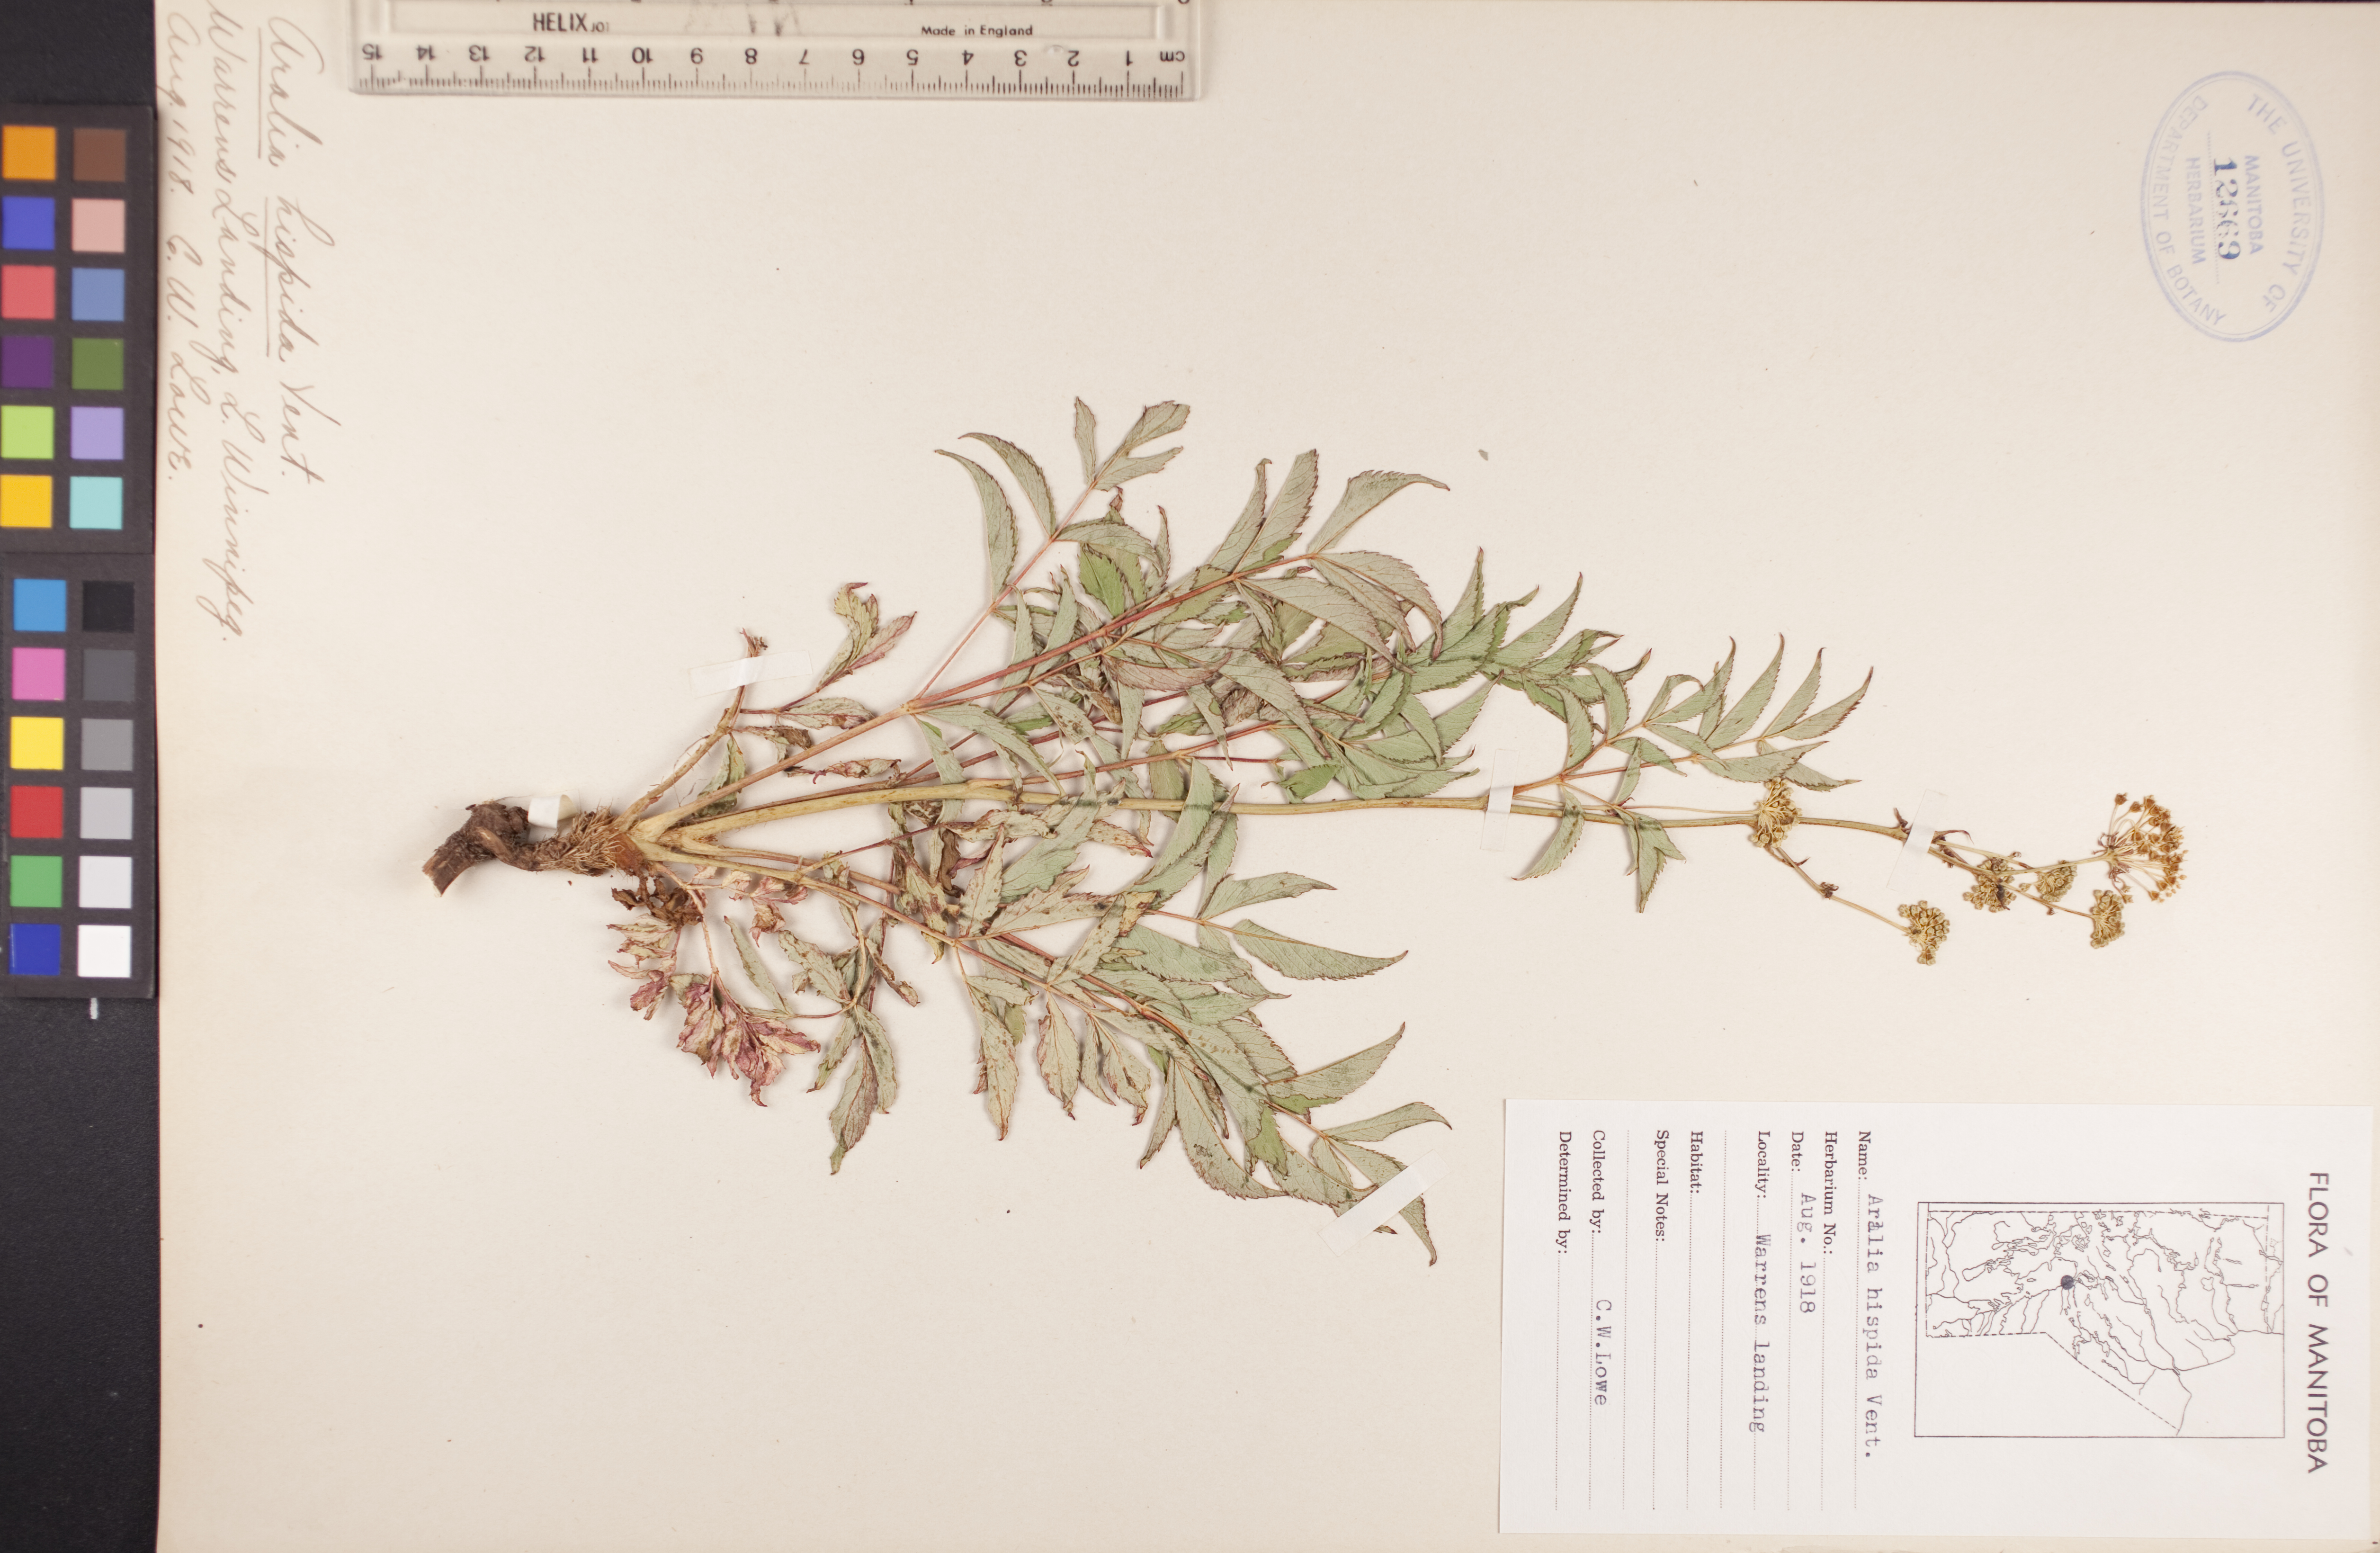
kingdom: Plantae
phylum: Tracheophyta
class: Magnoliopsida
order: Apiales
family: Araliaceae
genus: Aralia
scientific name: Aralia hispida
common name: Bristly sarsaparilla
